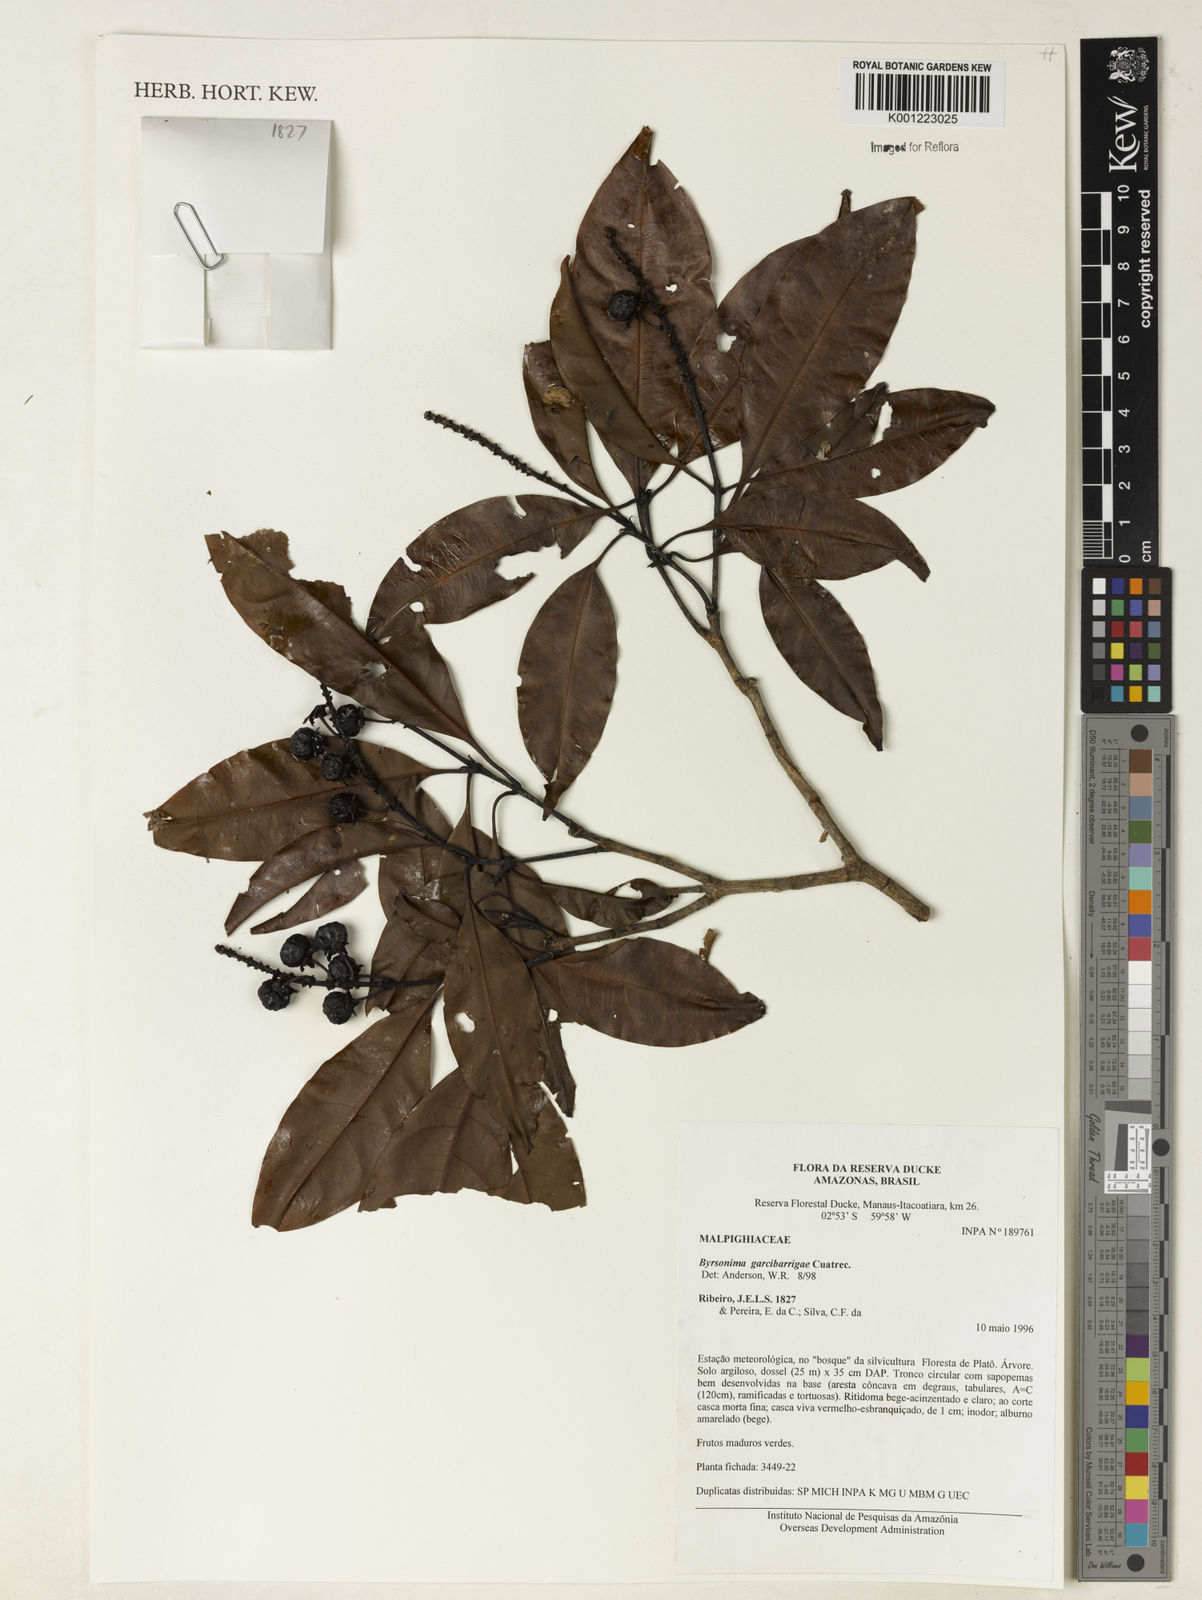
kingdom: Plantae
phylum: Tracheophyta
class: Magnoliopsida
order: Malpighiales
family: Malpighiaceae
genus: Byrsonima
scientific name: Byrsonima garcibarrigae
